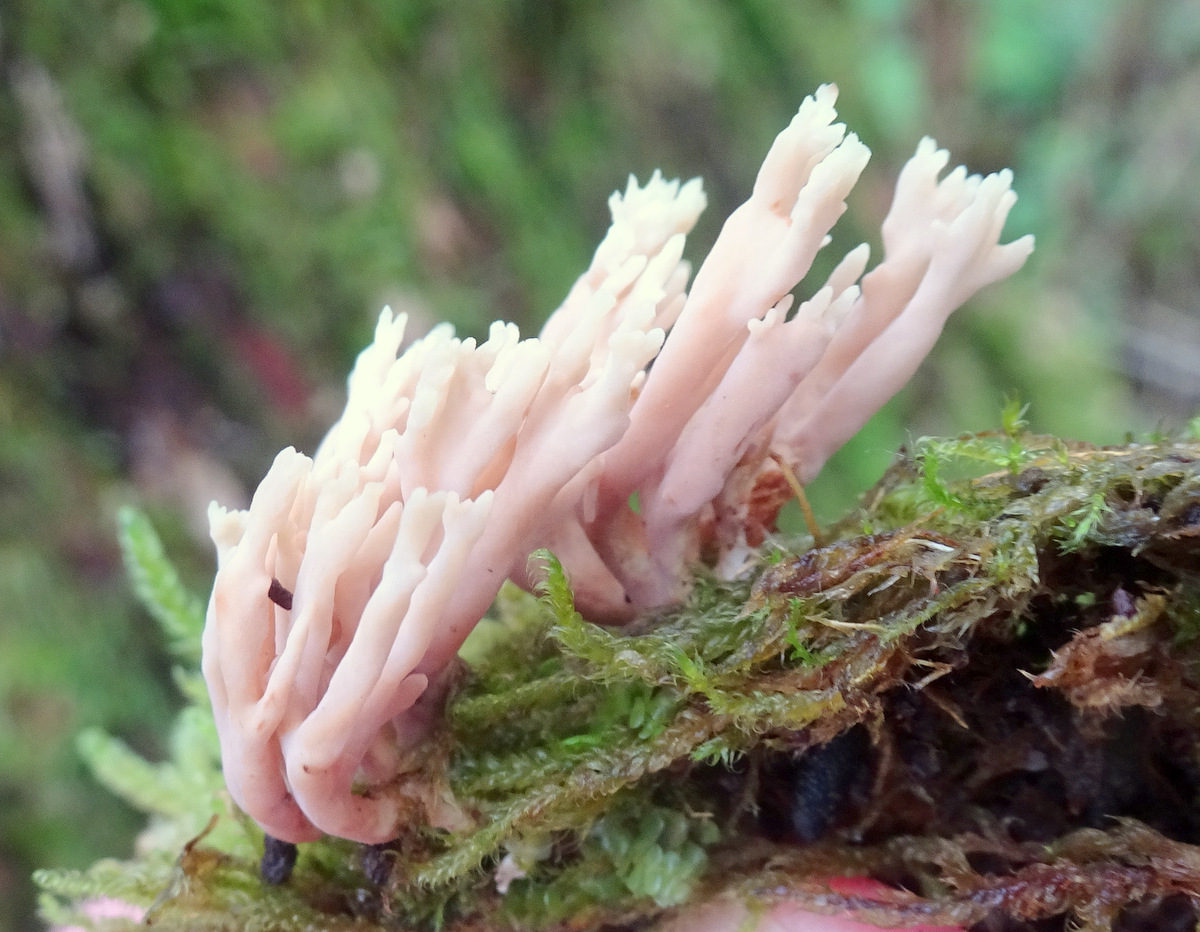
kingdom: Fungi
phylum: Basidiomycota
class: Agaricomycetes
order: Gomphales
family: Gomphaceae
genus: Ramaria
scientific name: Ramaria stricta
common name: rank koralsvamp
